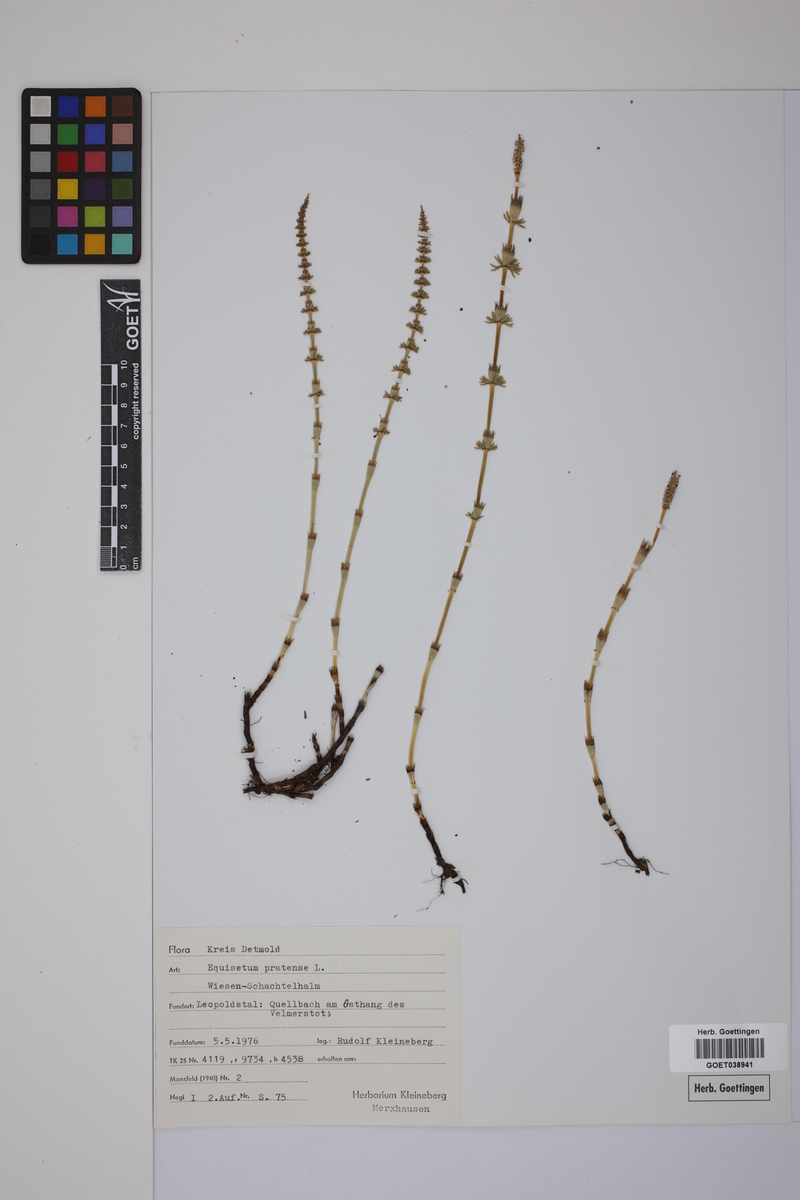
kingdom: Plantae
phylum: Tracheophyta
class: Polypodiopsida
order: Equisetales
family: Equisetaceae
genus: Equisetum
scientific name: Equisetum pratense
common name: Meadow horsetail
